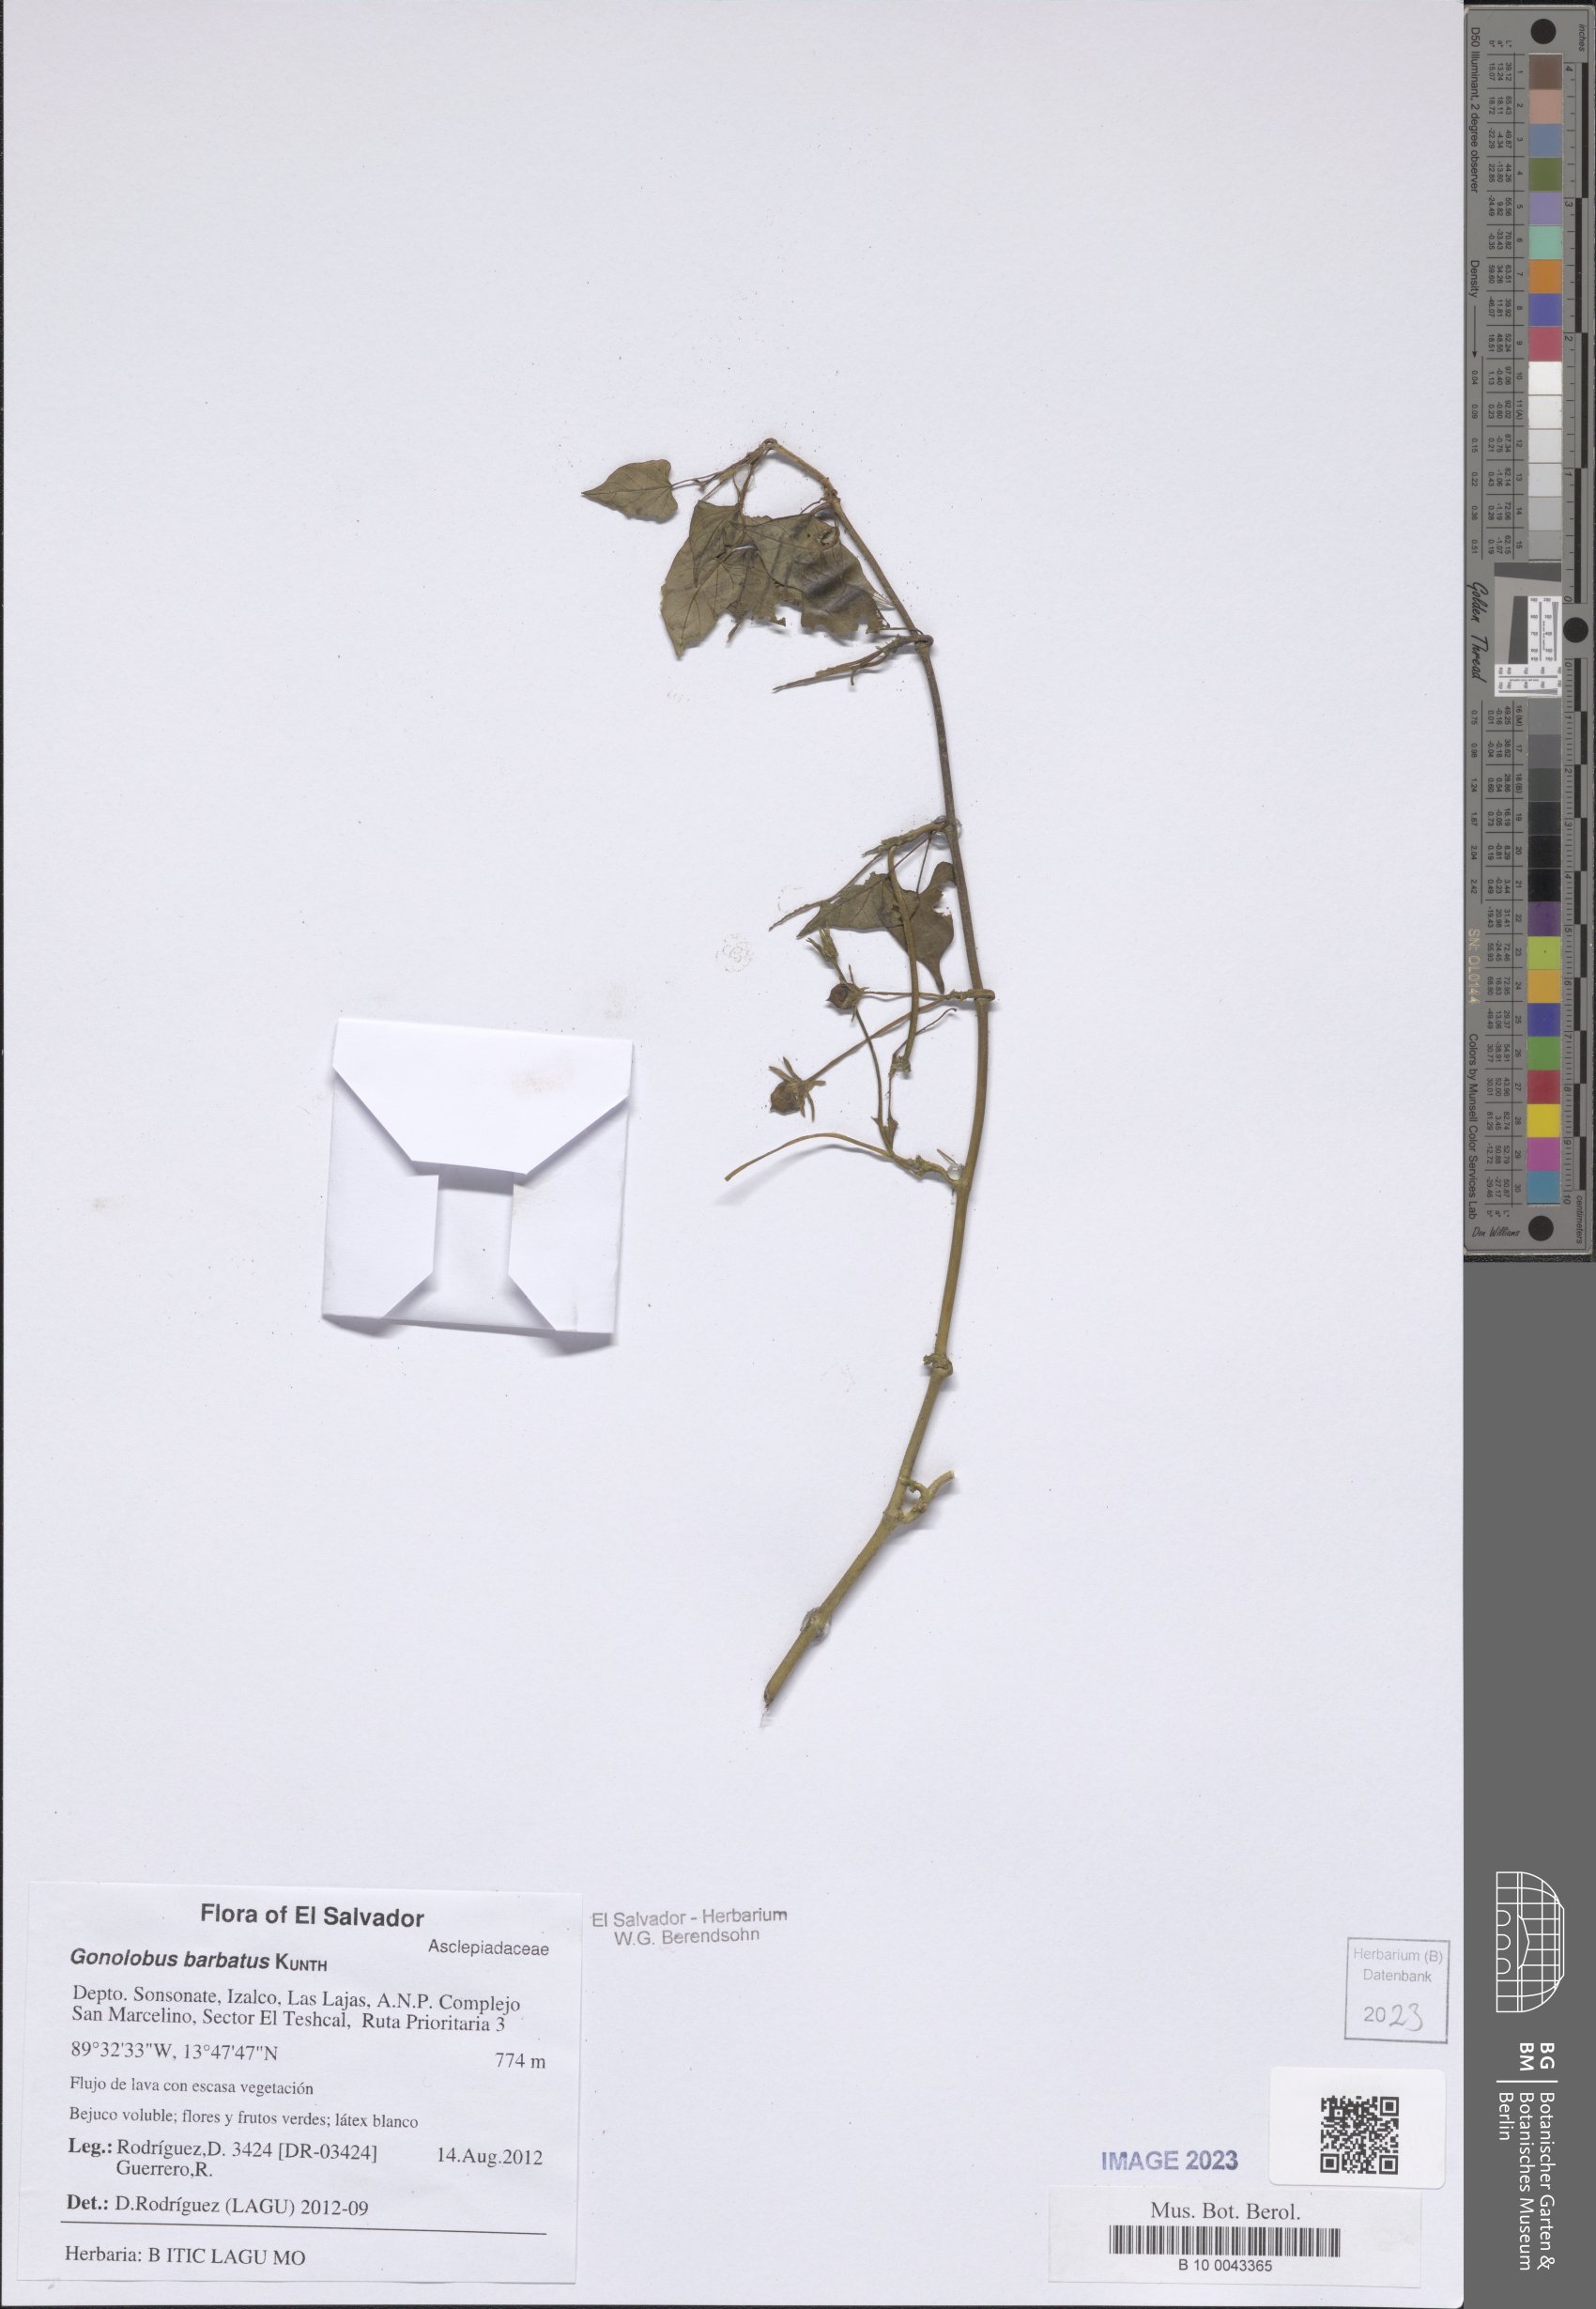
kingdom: Plantae
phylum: Tracheophyta
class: Magnoliopsida
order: Gentianales
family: Apocynaceae
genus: Gonolobus
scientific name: Gonolobus barbatus
